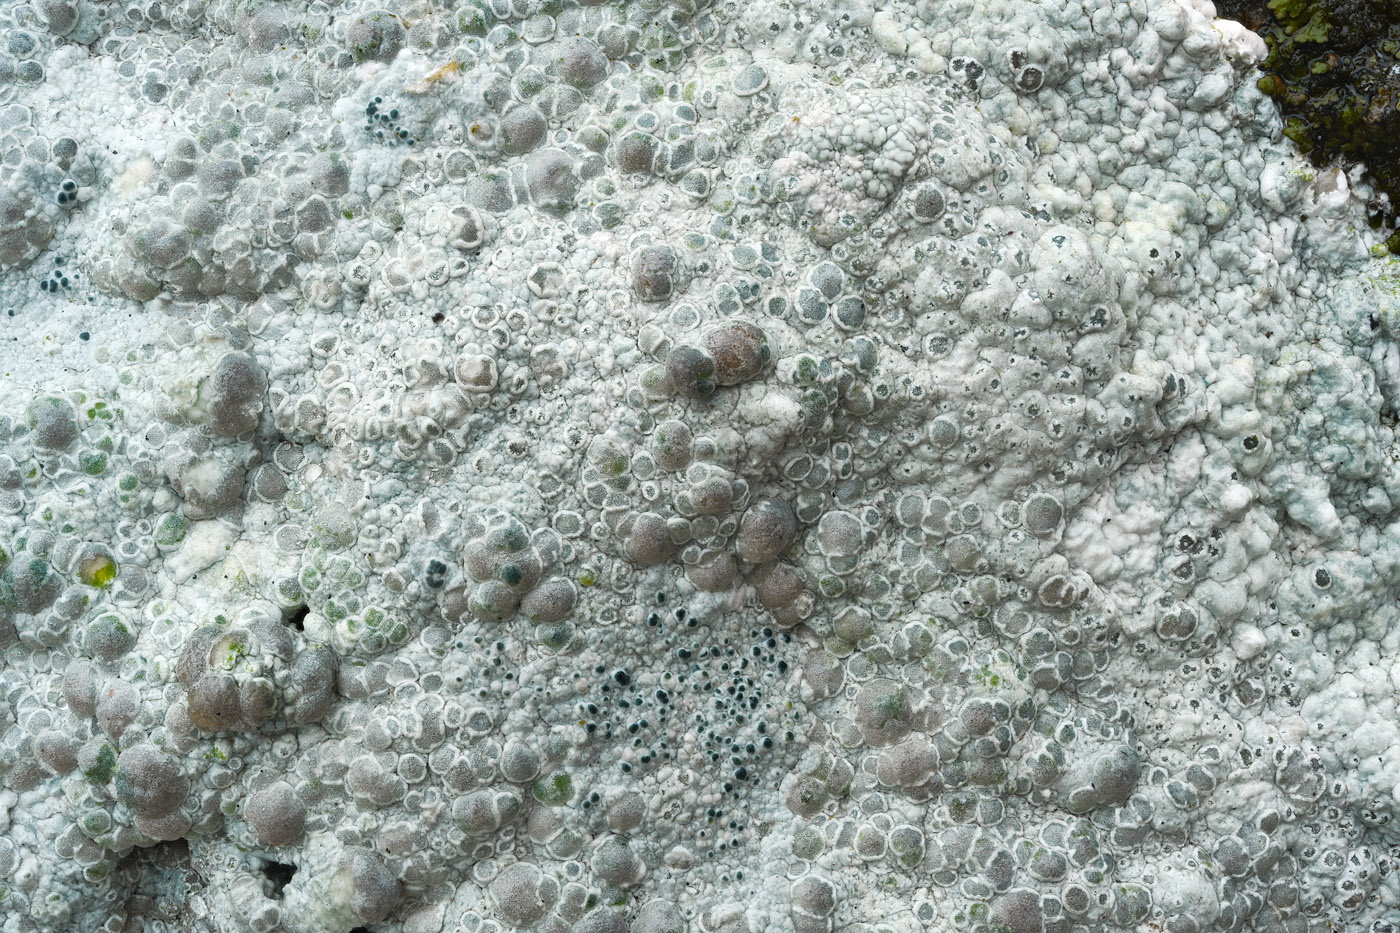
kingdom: Fungi
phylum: Ascomycota
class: Lecanoromycetes
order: Lecanorales
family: Lecanoraceae
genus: Glaucomaria
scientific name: Glaucomaria rupicola
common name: stengærde-kantskivelav
